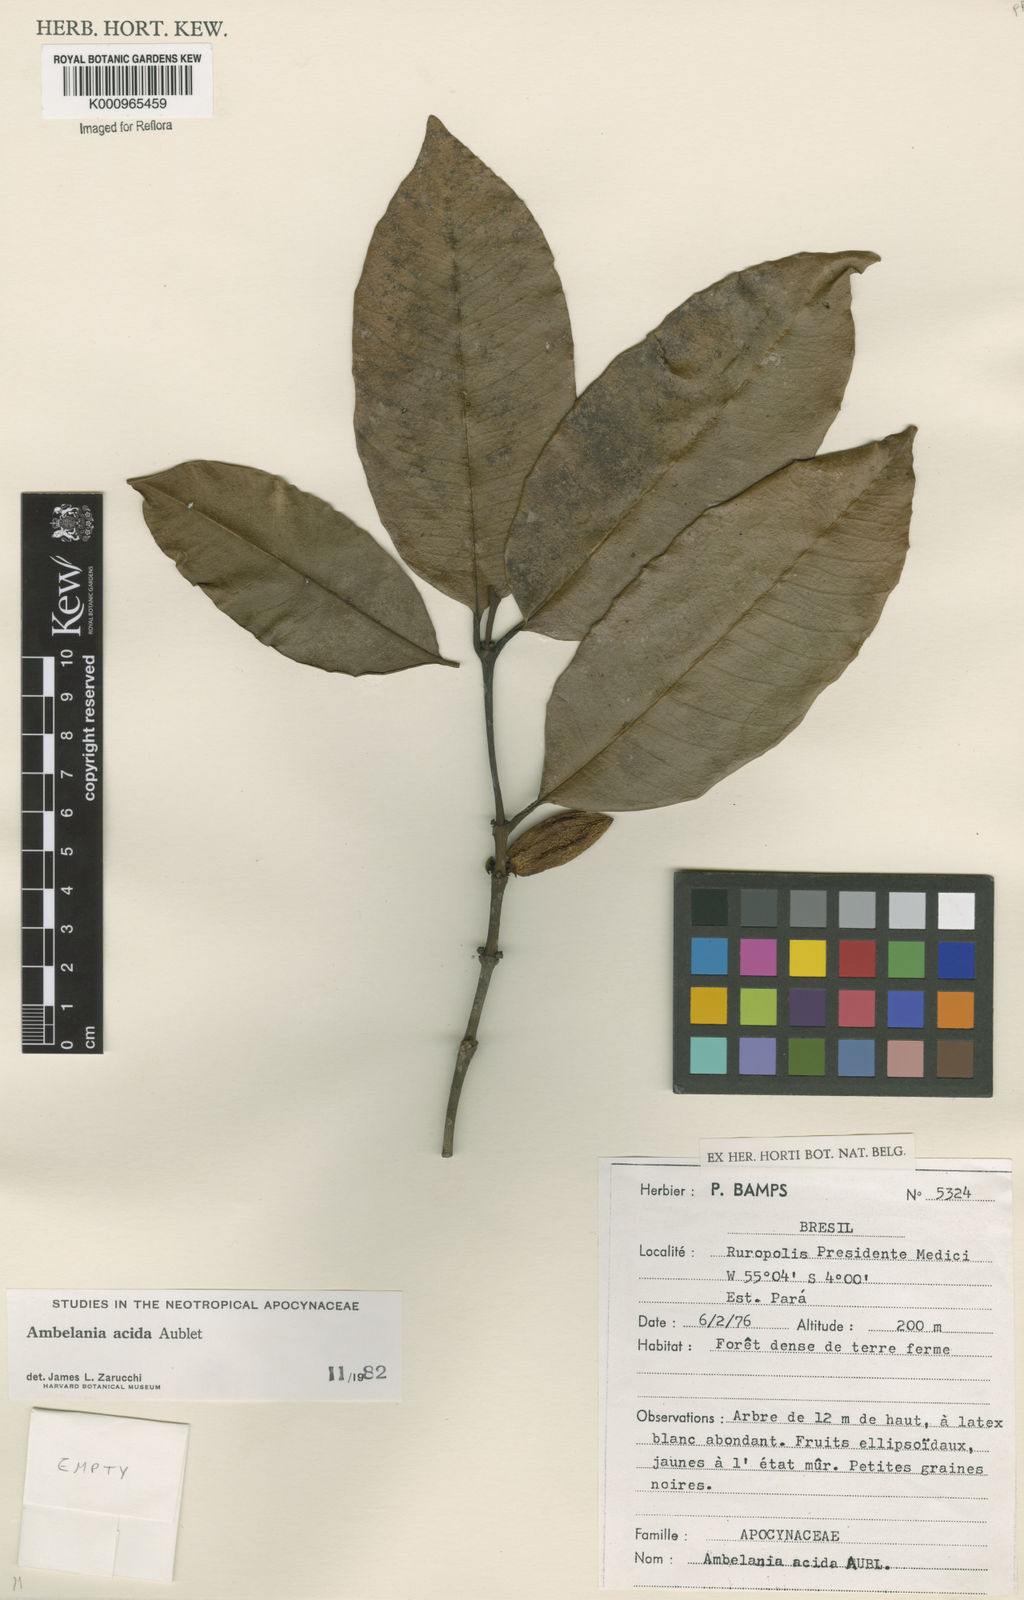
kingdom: Plantae
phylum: Tracheophyta
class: Magnoliopsida
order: Gentianales
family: Apocynaceae
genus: Ambelania
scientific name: Ambelania acida
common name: Bagasse
